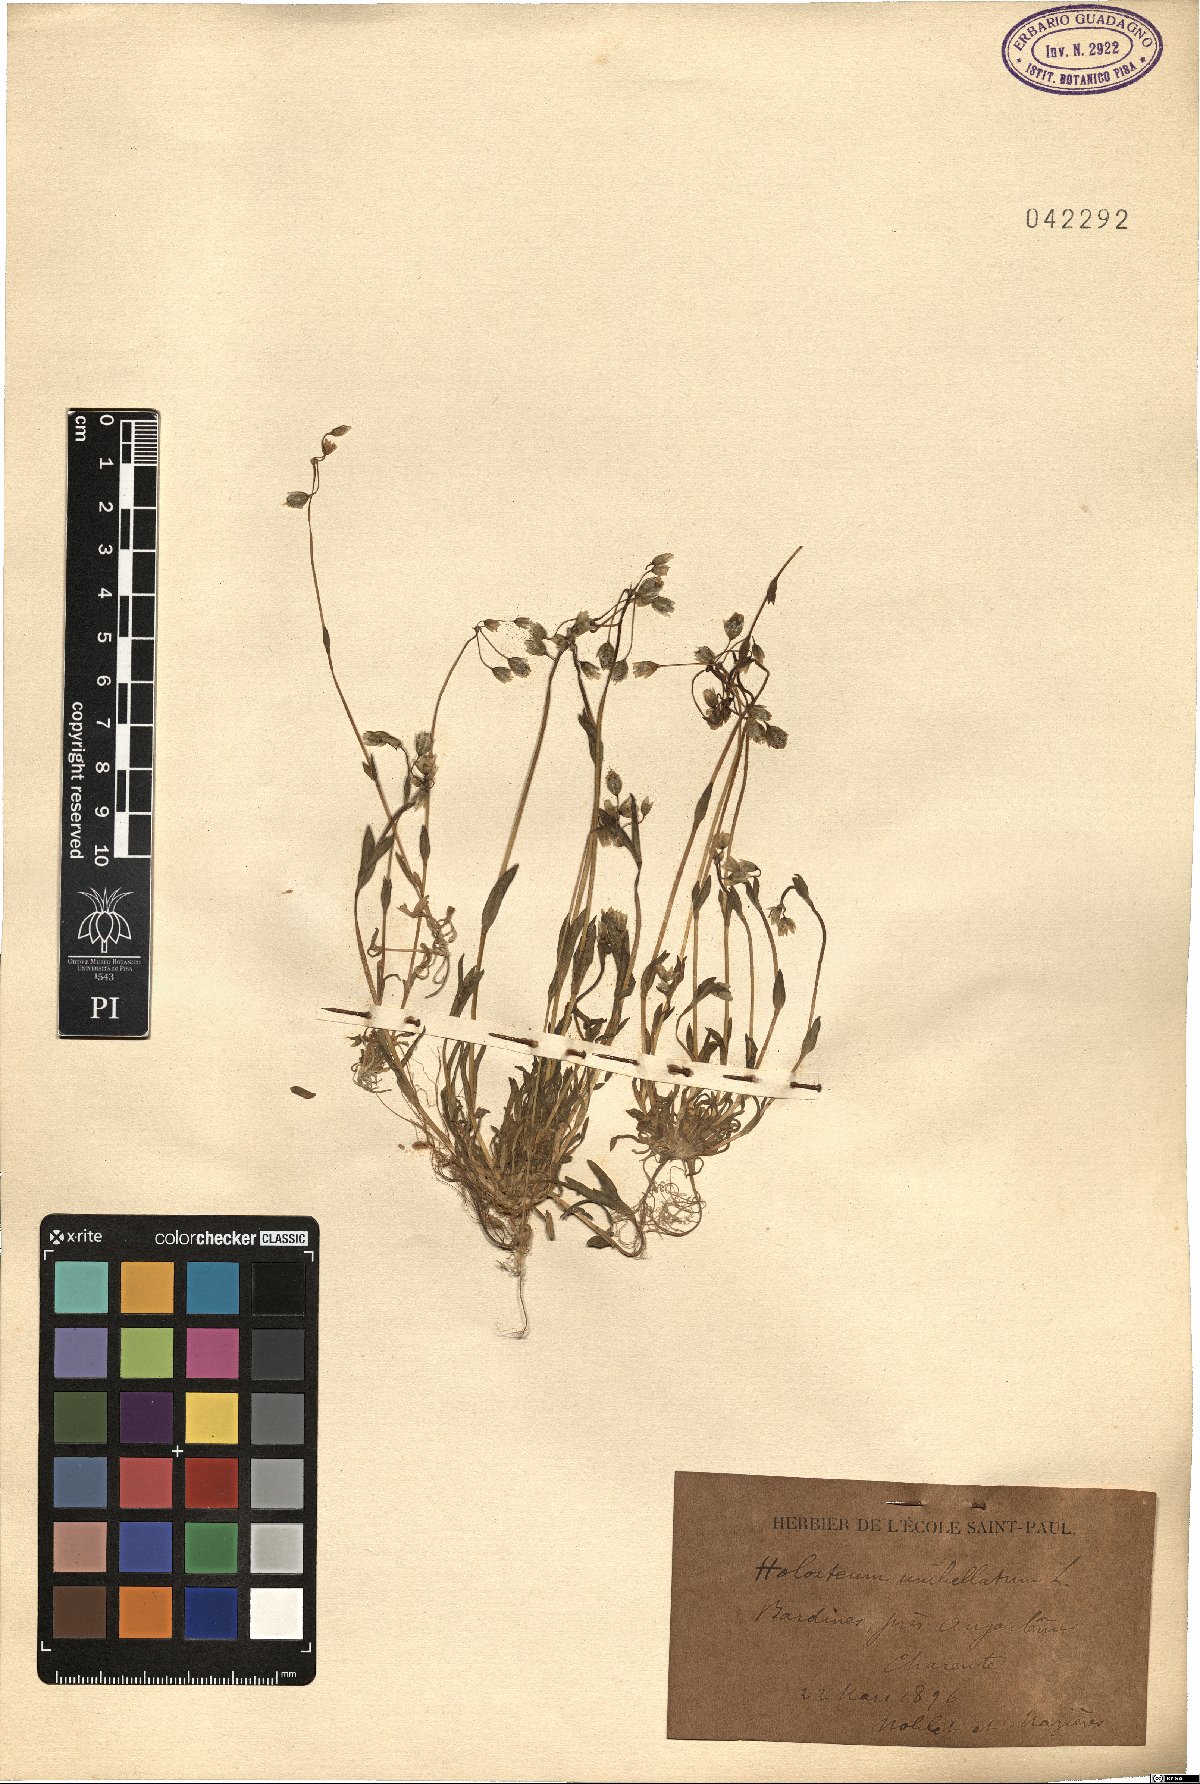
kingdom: Plantae
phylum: Tracheophyta
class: Magnoliopsida
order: Caryophyllales
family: Caryophyllaceae
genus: Holosteum
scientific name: Holosteum umbellatum
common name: Jagged chickweed
